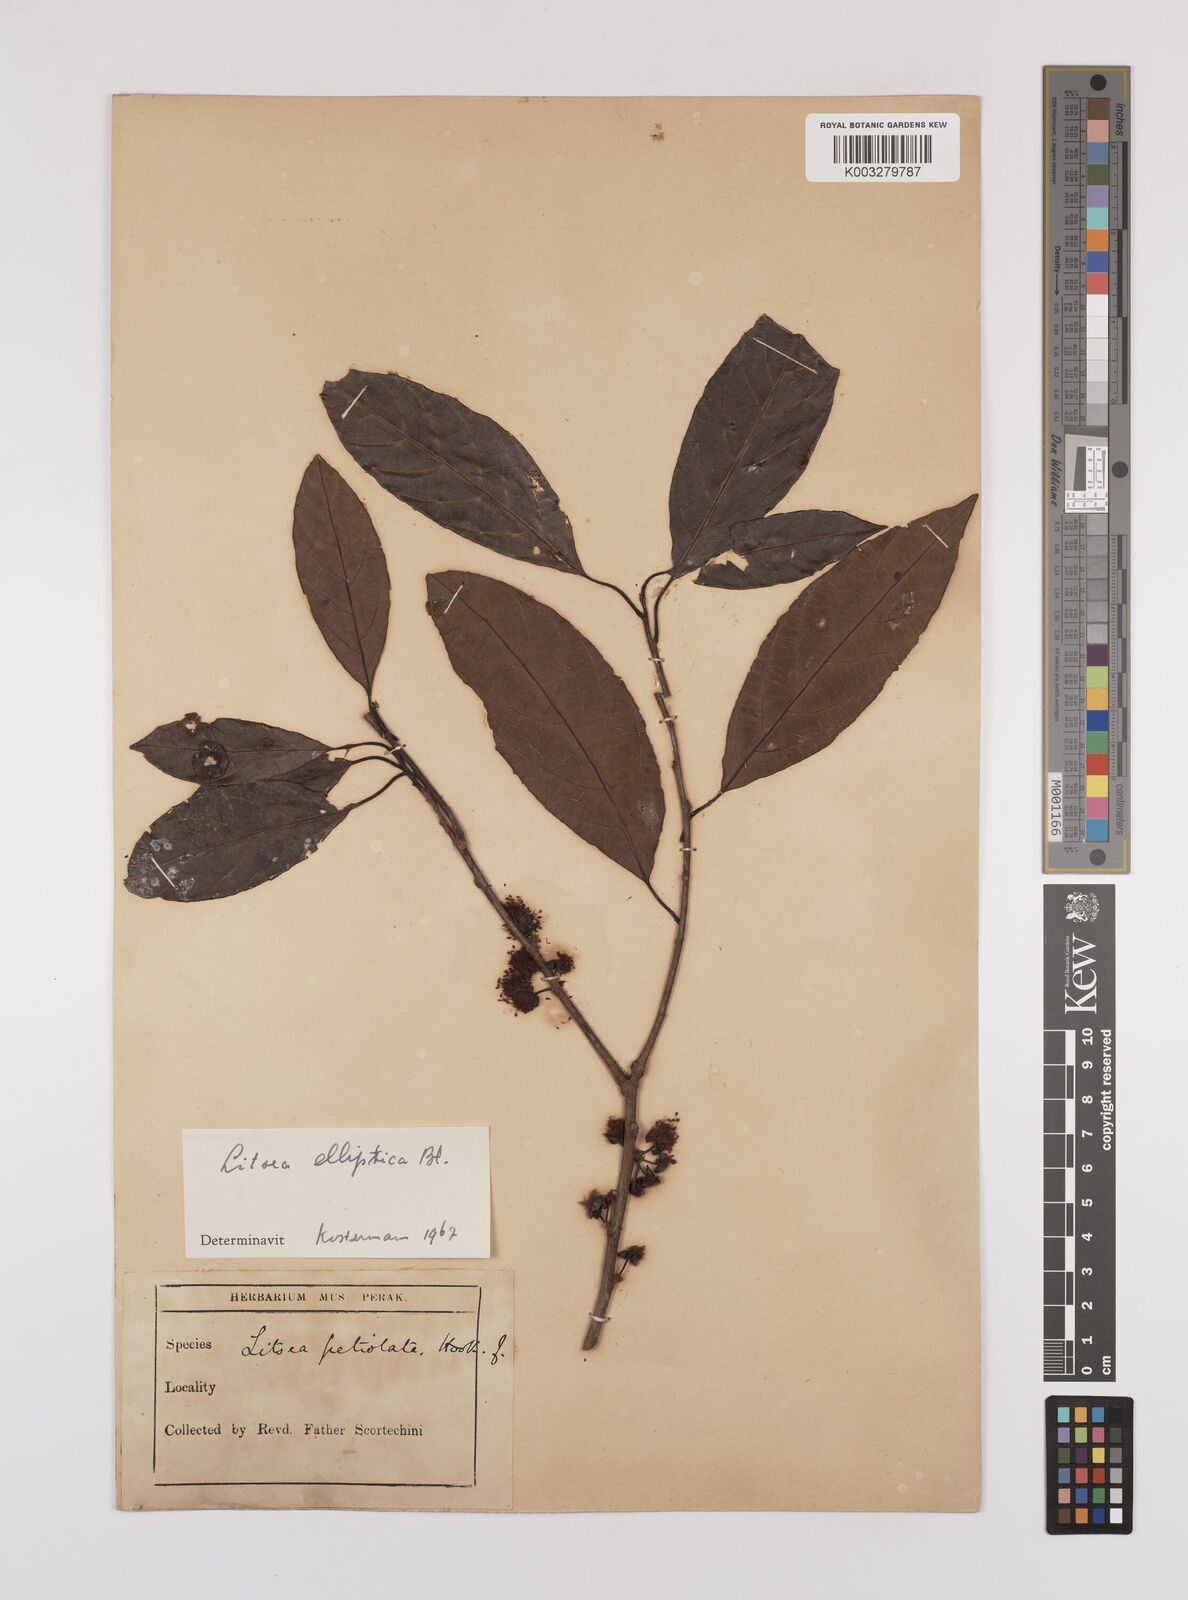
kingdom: Plantae
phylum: Tracheophyta
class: Magnoliopsida
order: Laurales
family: Lauraceae
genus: Litsea
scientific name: Litsea elliptica
